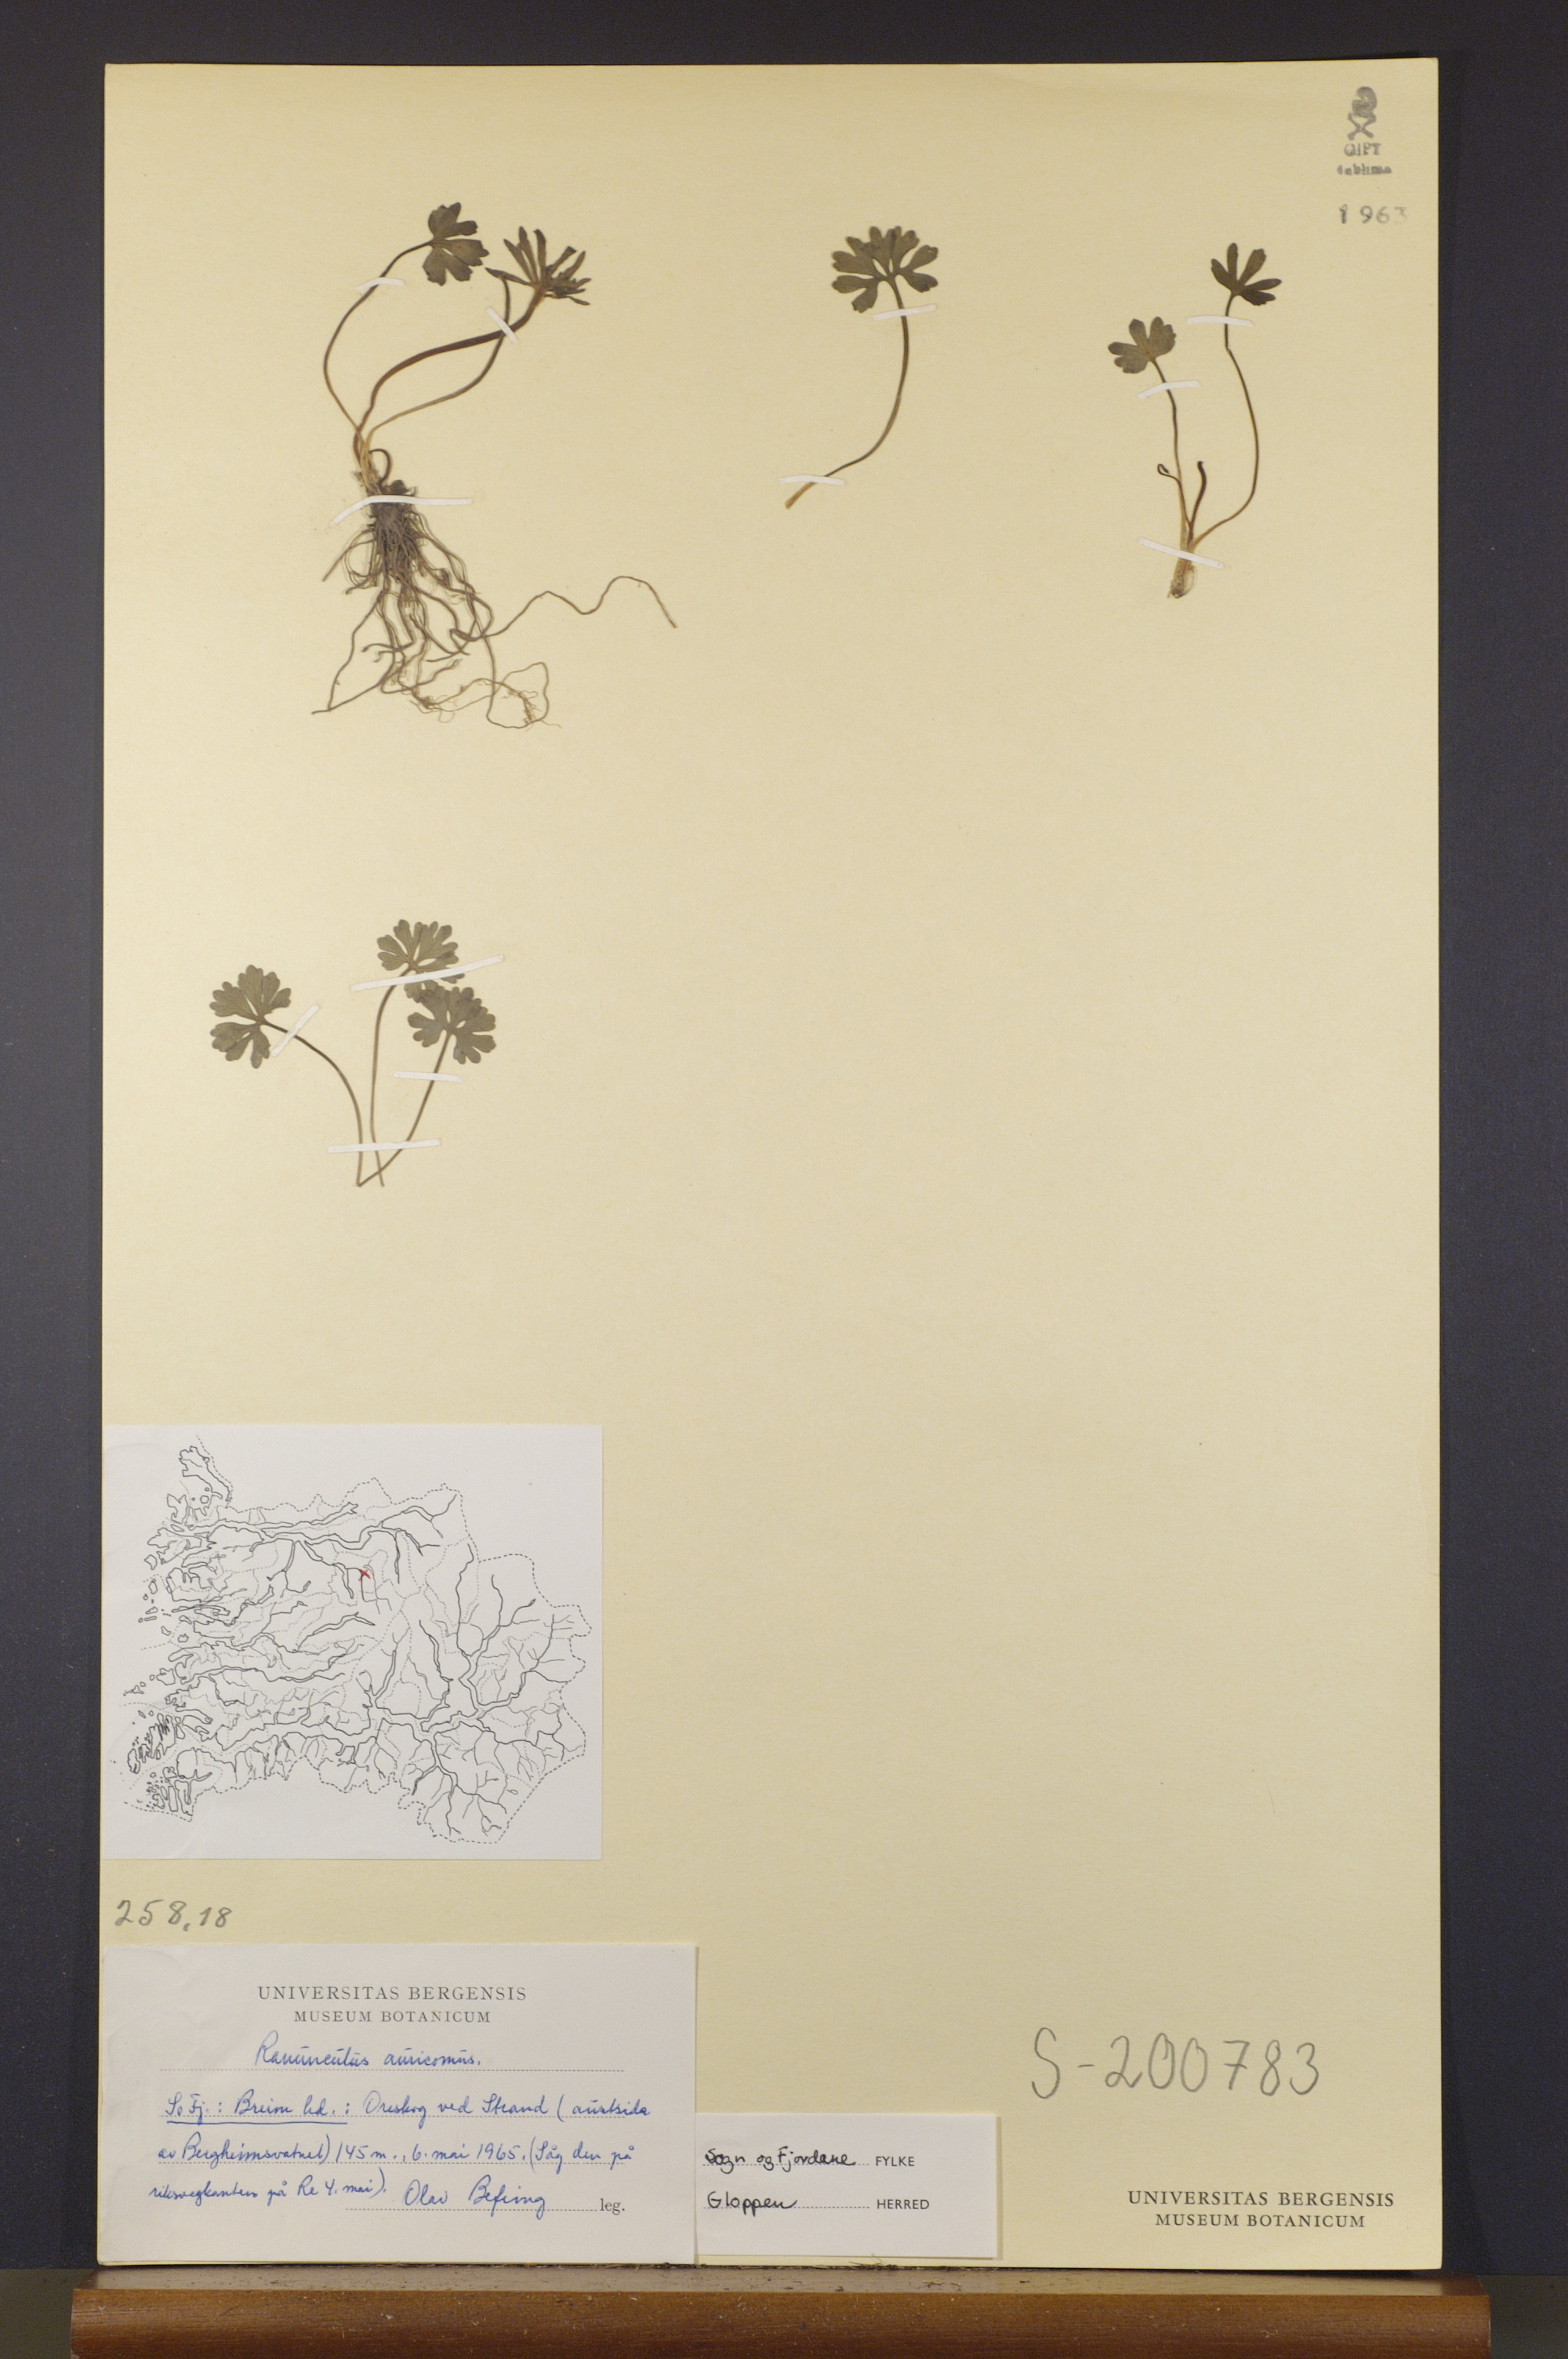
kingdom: Plantae
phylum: Tracheophyta
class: Magnoliopsida
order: Ranunculales
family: Ranunculaceae
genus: Ranunculus
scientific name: Ranunculus auricomus
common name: Goldilocks buttercup
